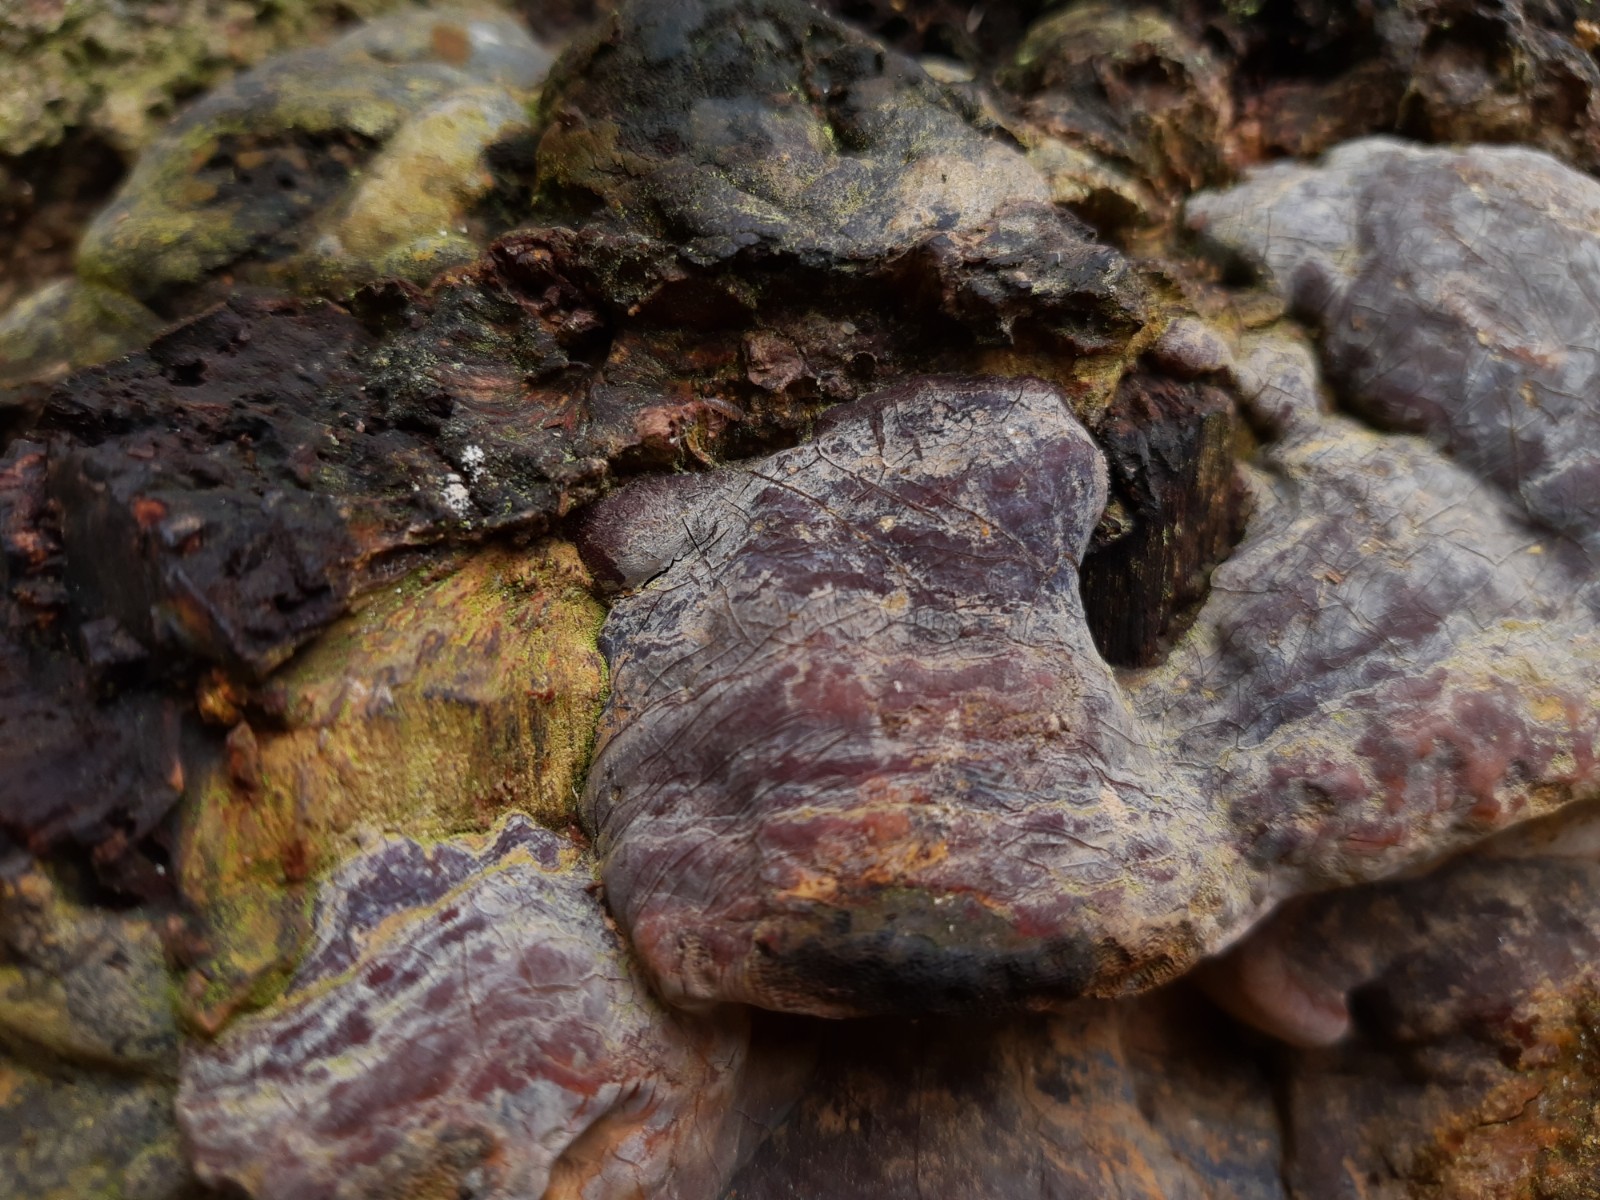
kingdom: Fungi
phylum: Basidiomycota
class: Agaricomycetes
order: Polyporales
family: Polyporaceae
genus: Ganoderma
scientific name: Ganoderma pfeifferi
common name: kobberrød lakporesvamp
